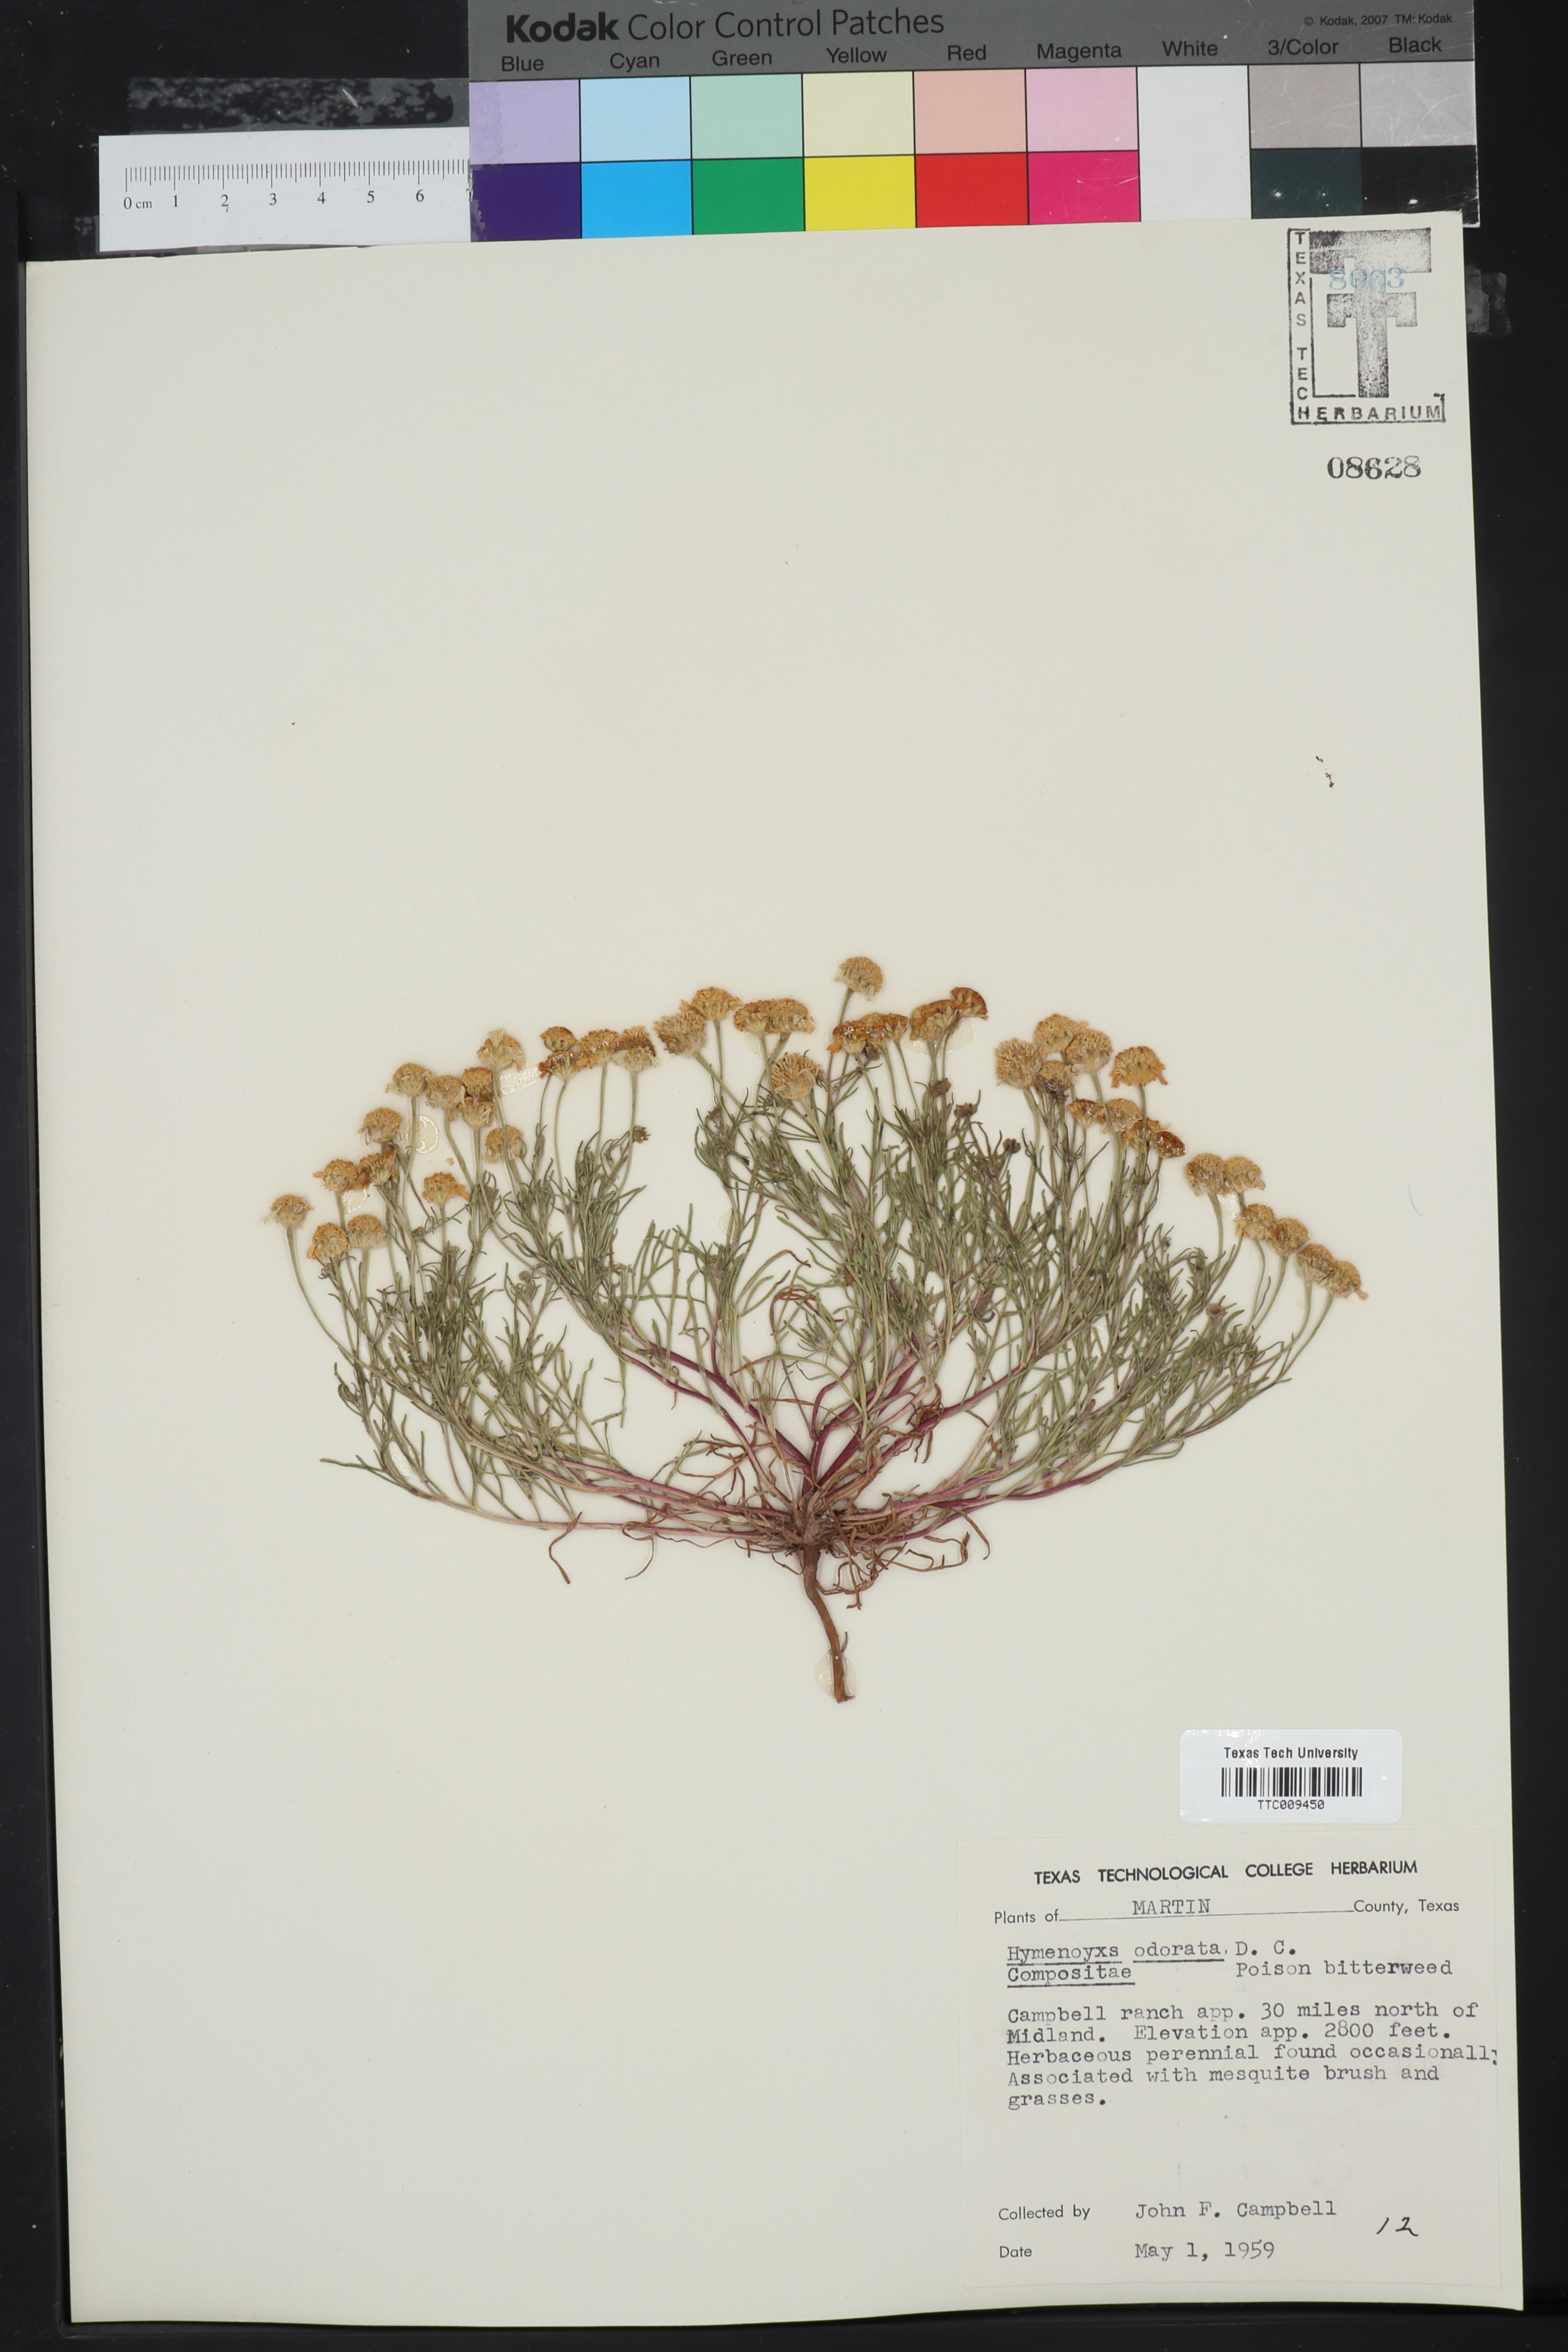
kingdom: Plantae
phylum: Tracheophyta
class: Magnoliopsida
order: Asterales
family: Asteraceae
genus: Hymenoxys
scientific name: Hymenoxys odorata
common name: Bitter rubberweed
